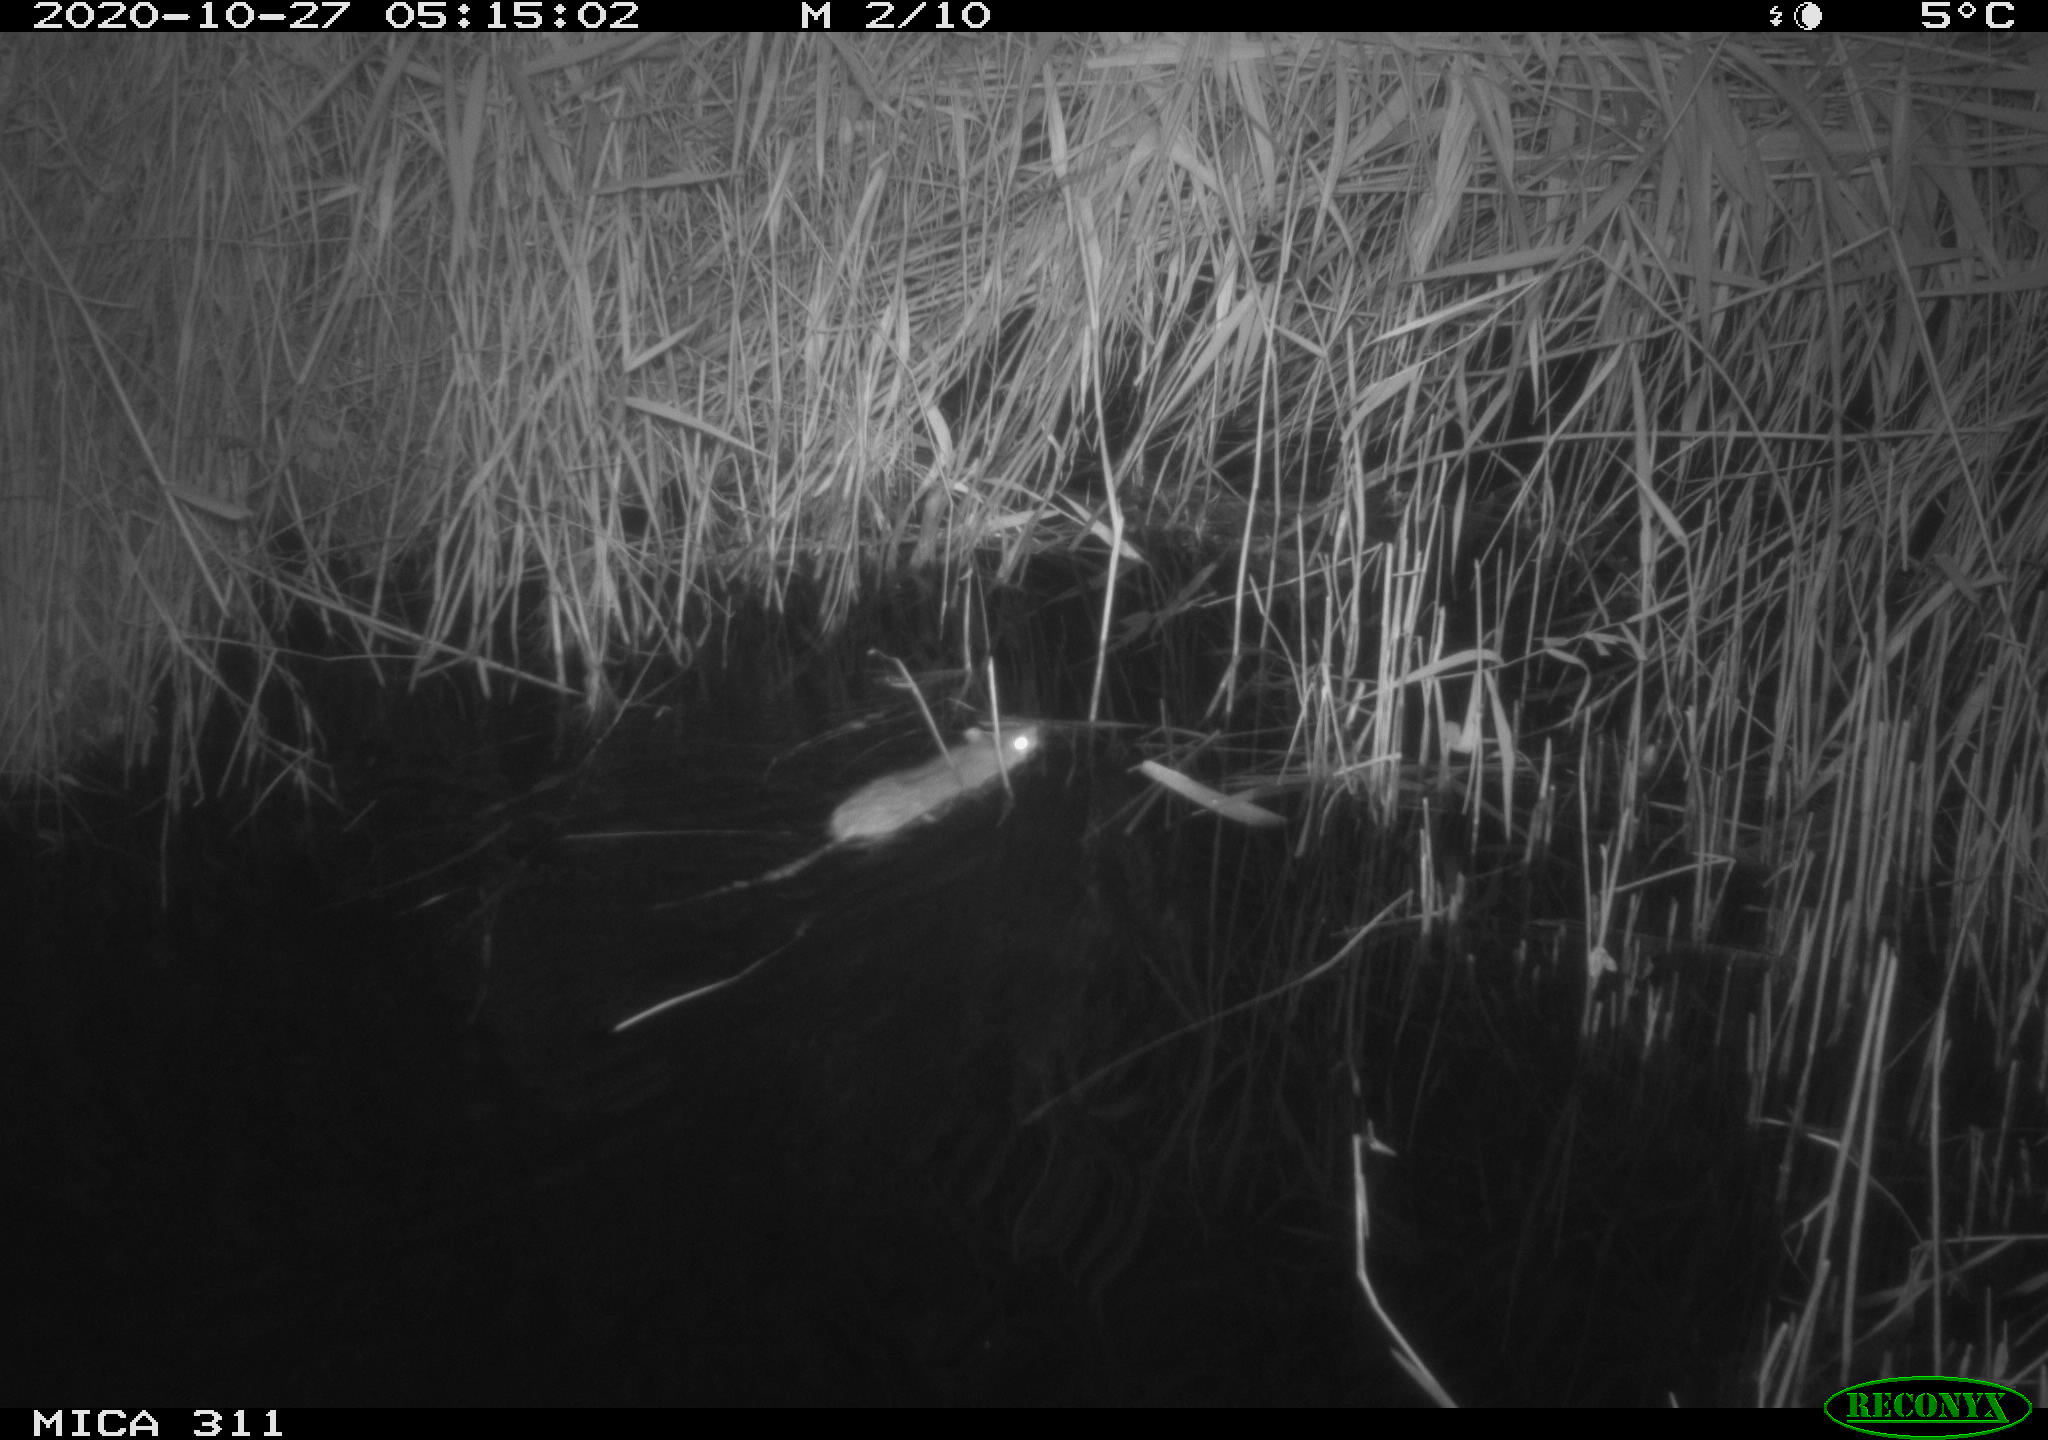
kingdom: Animalia
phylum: Chordata
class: Mammalia
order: Rodentia
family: Muridae
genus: Rattus
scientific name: Rattus norvegicus
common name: Brown rat
